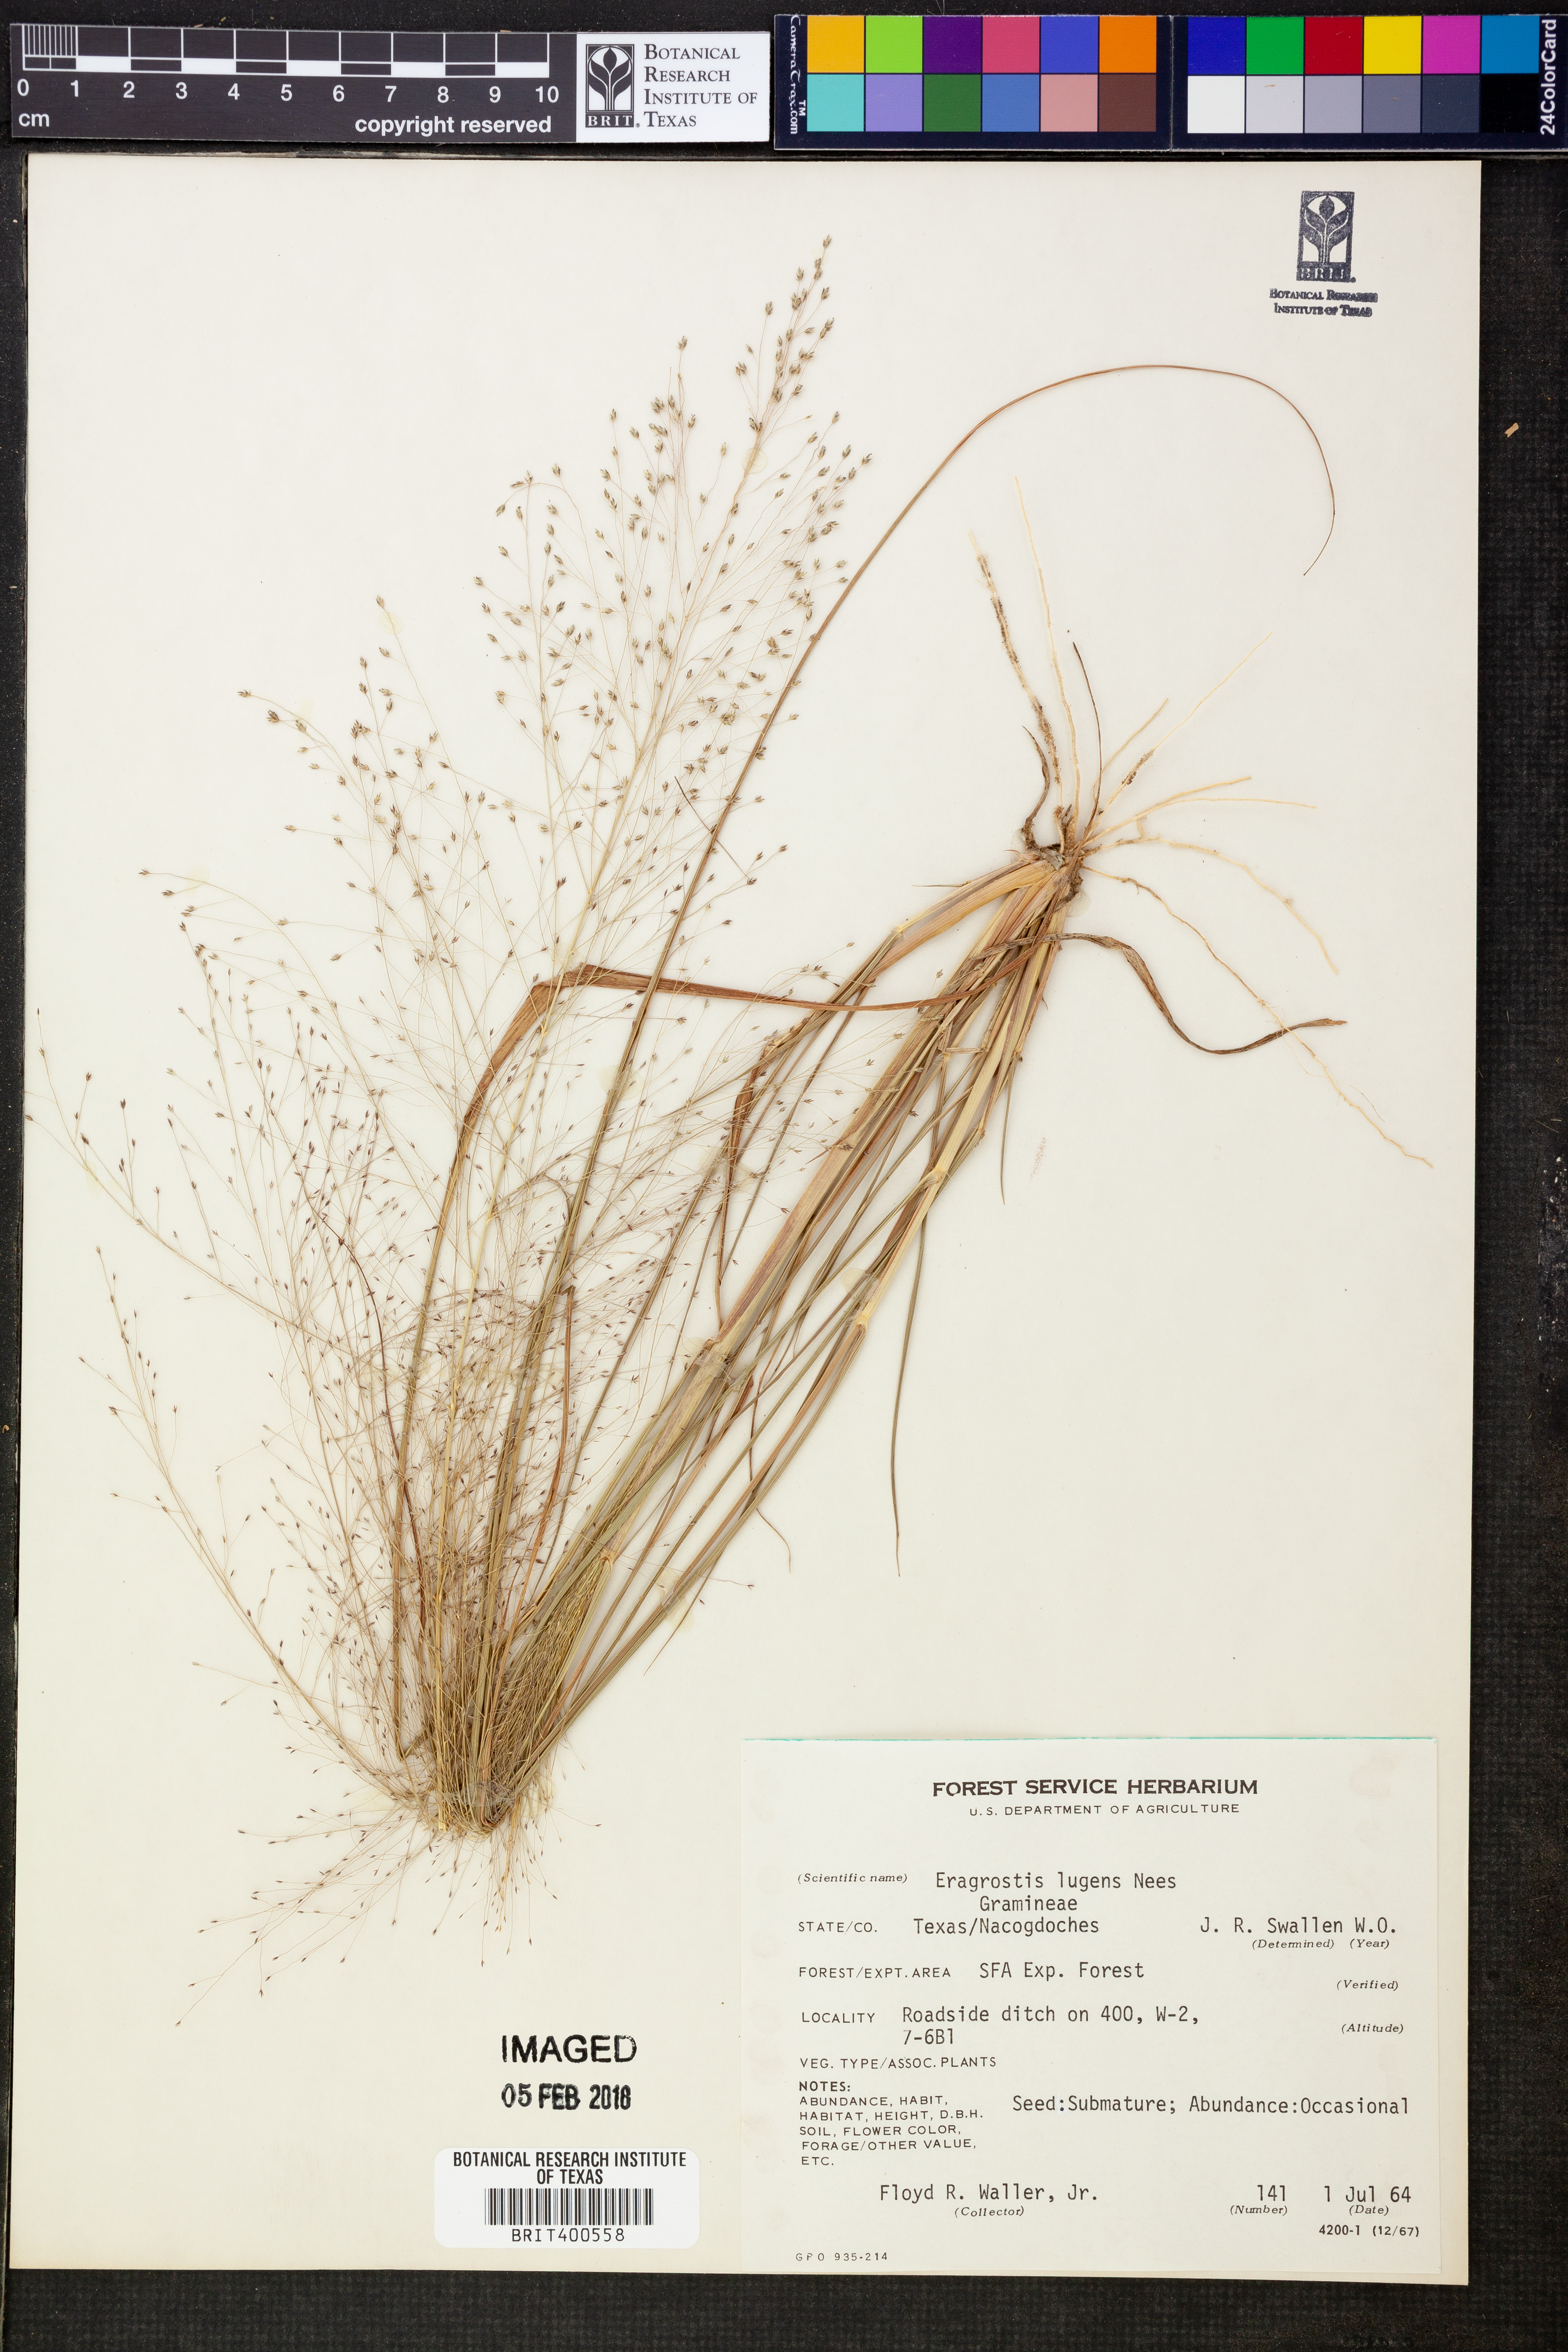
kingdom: Plantae
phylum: Tracheophyta
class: Liliopsida
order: Poales
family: Poaceae
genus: Eragrostis
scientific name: Eragrostis capillaris
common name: Hair-like lovegrass
